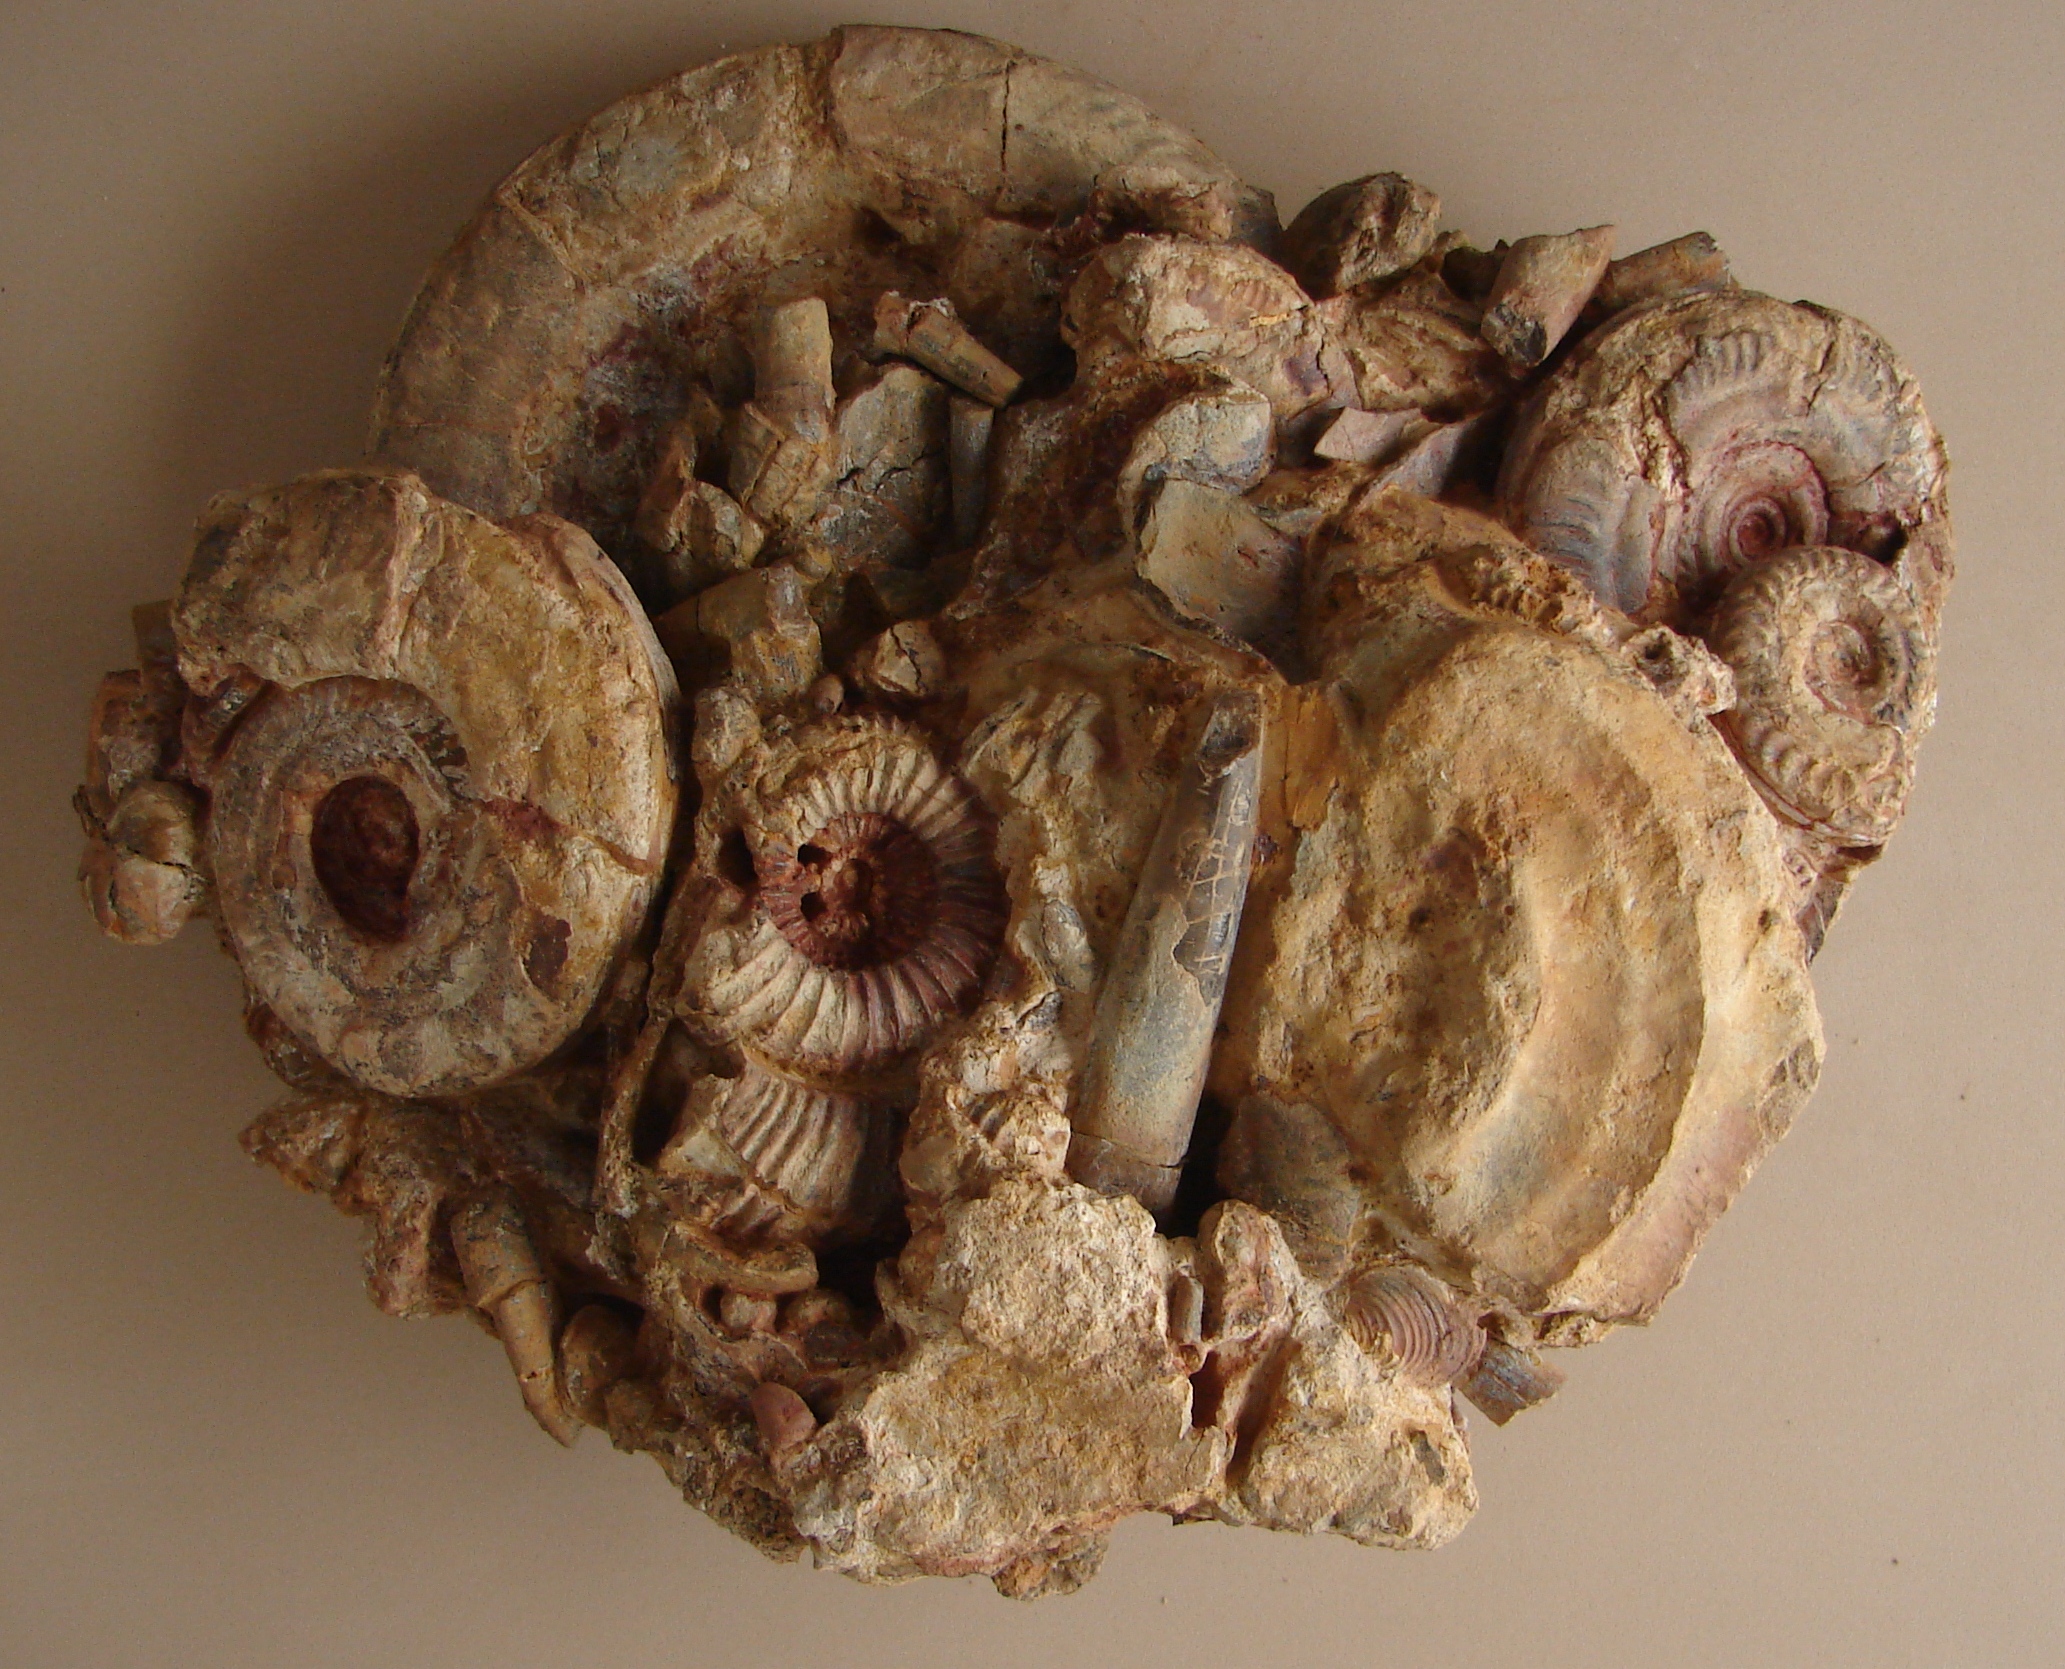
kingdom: Animalia
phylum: Mollusca
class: Cephalopoda
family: Hildoceratidae
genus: Hildoceras
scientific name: Hildoceras semipolitum
